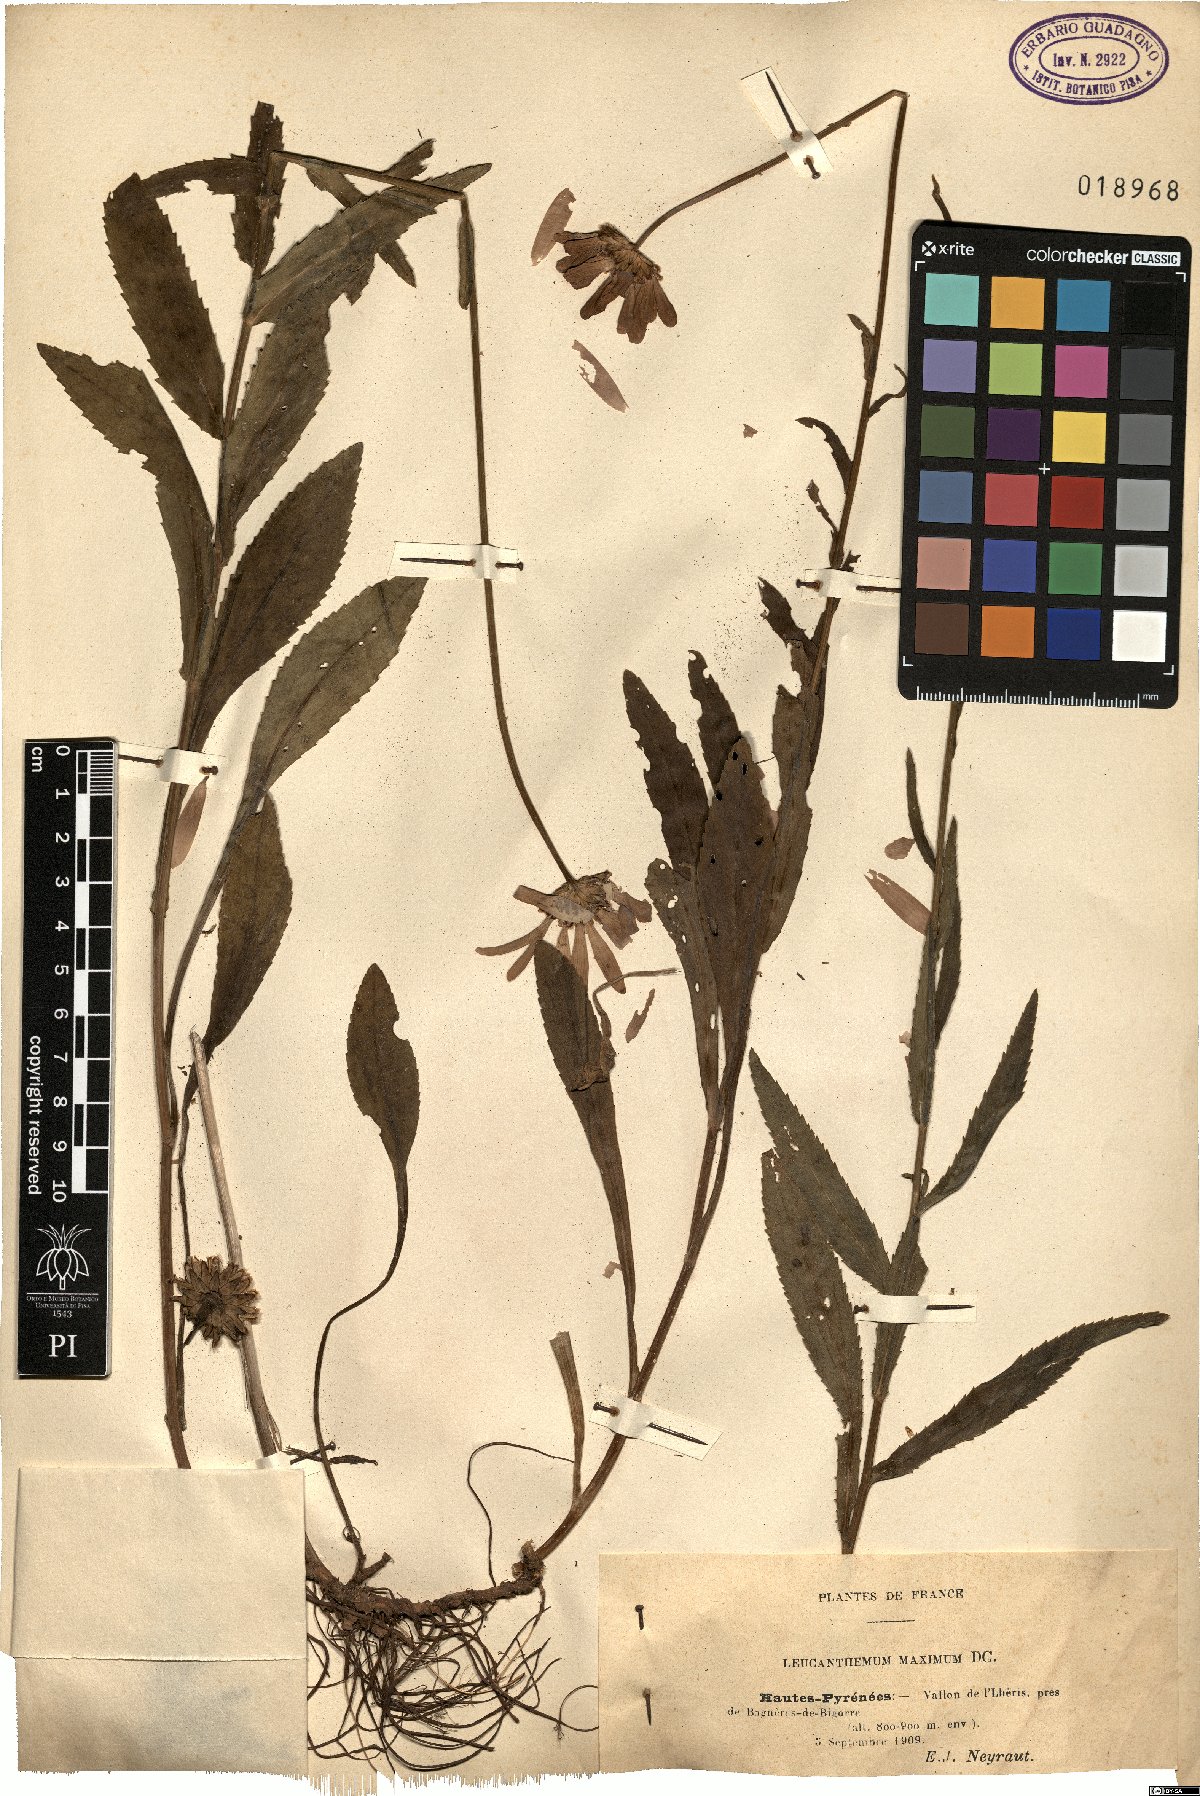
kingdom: Plantae
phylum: Tracheophyta
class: Magnoliopsida
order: Asterales
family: Asteraceae
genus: Leucanthemum
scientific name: Leucanthemum maximum
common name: Max chrysanthemum
